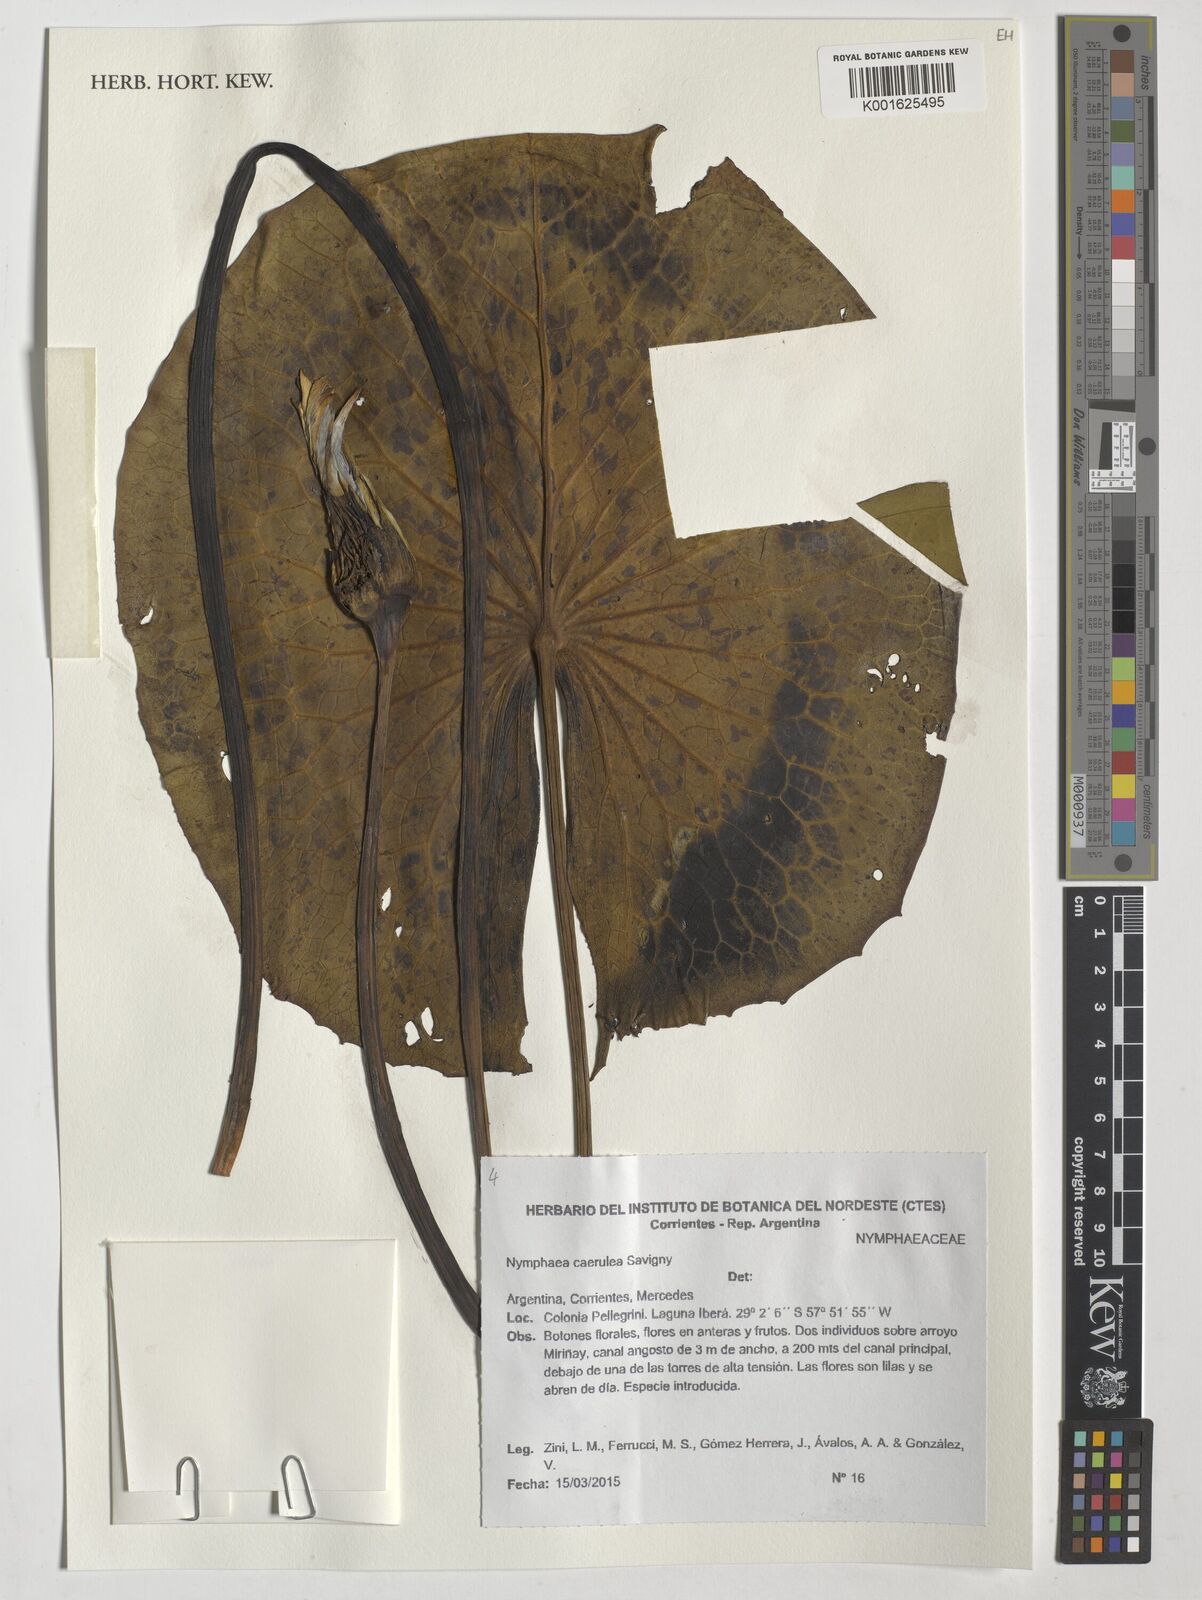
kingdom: Plantae
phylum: Tracheophyta
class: Magnoliopsida
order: Nymphaeales
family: Nymphaeaceae
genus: Nymphaea
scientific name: Nymphaea
